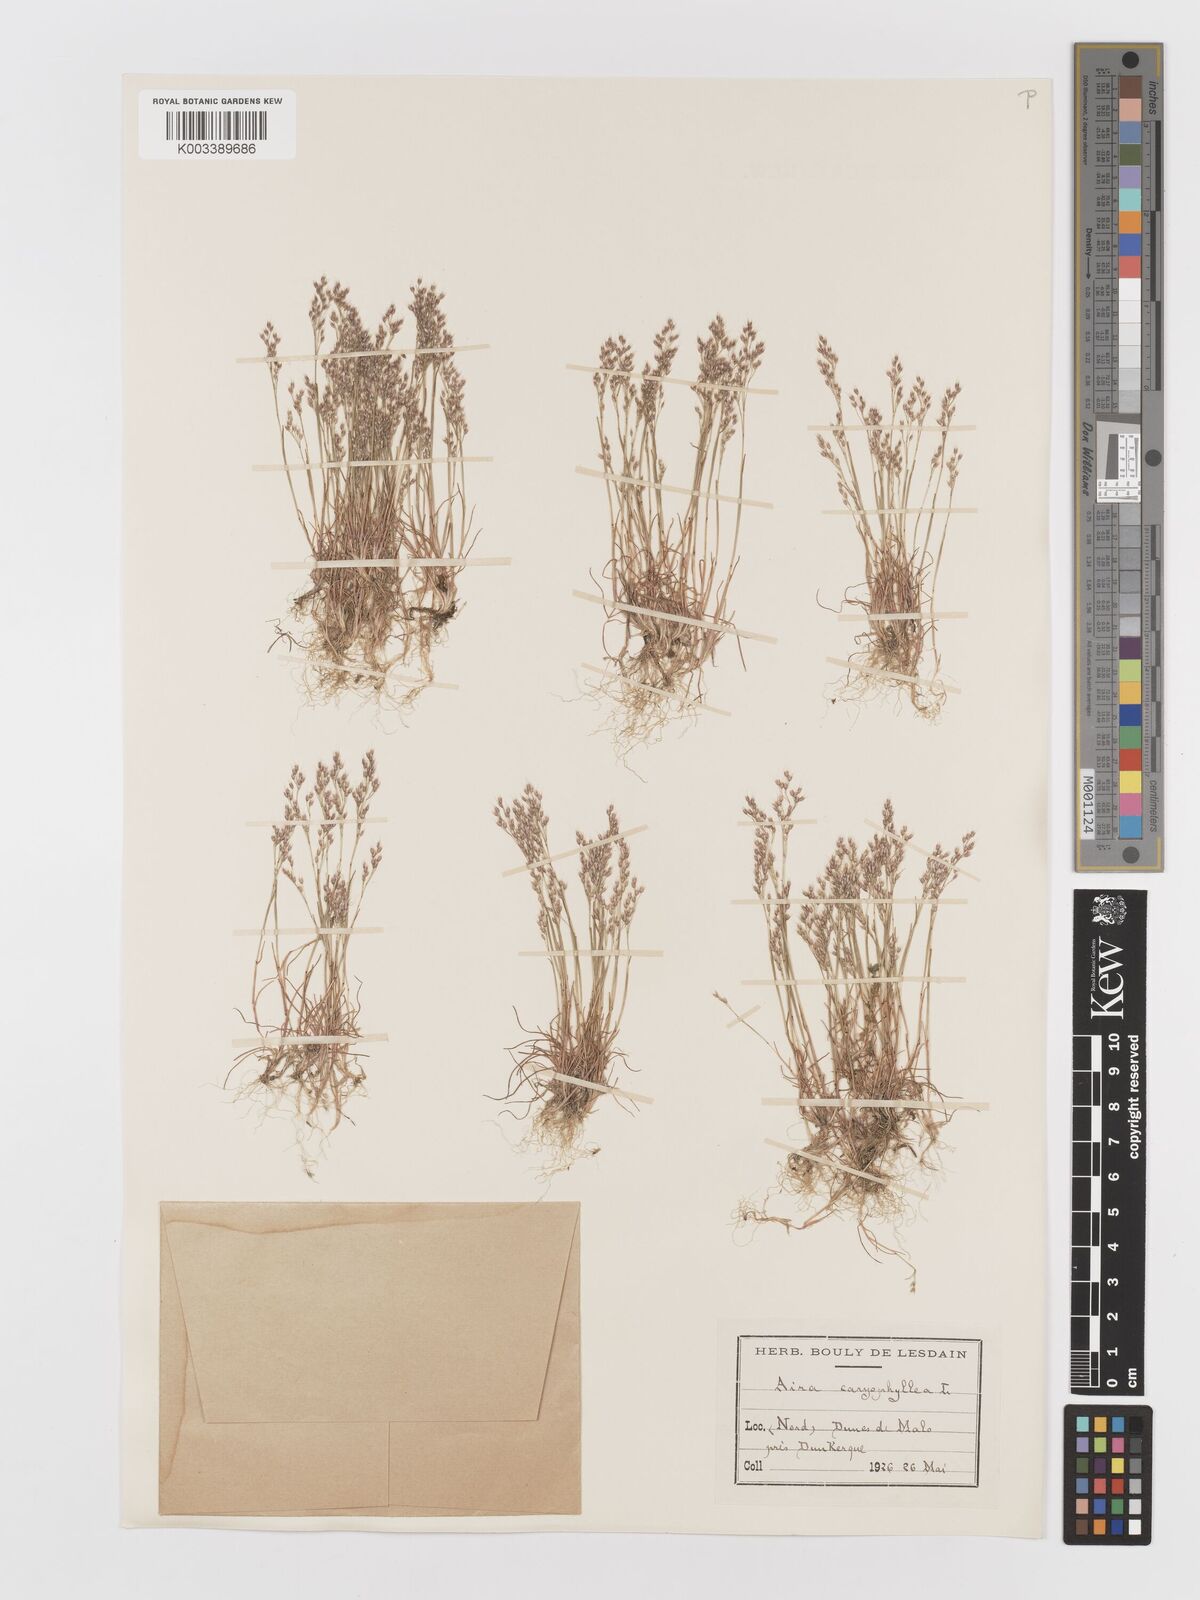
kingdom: Plantae
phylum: Tracheophyta
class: Liliopsida
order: Poales
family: Poaceae
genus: Aira
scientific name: Aira caryophyllea
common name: Silver hairgrass
